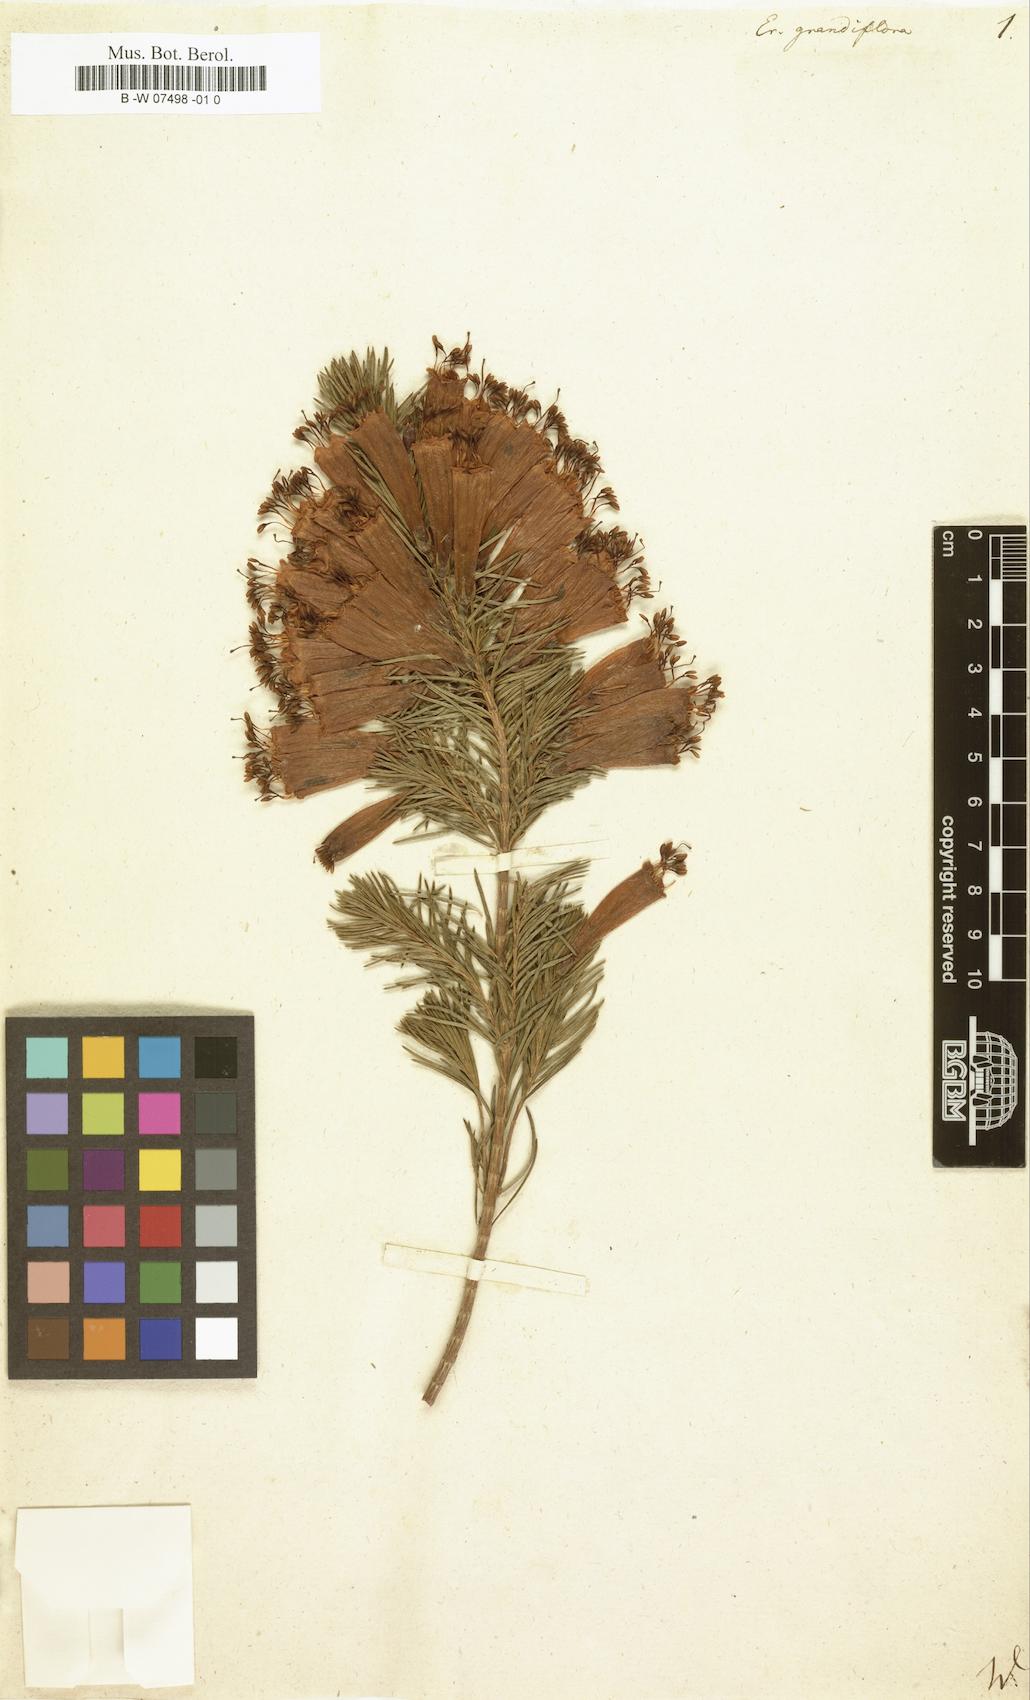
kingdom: Plantae
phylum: Tracheophyta
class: Magnoliopsida
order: Ericales
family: Ericaceae
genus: Erica
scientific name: Erica grandiflora
